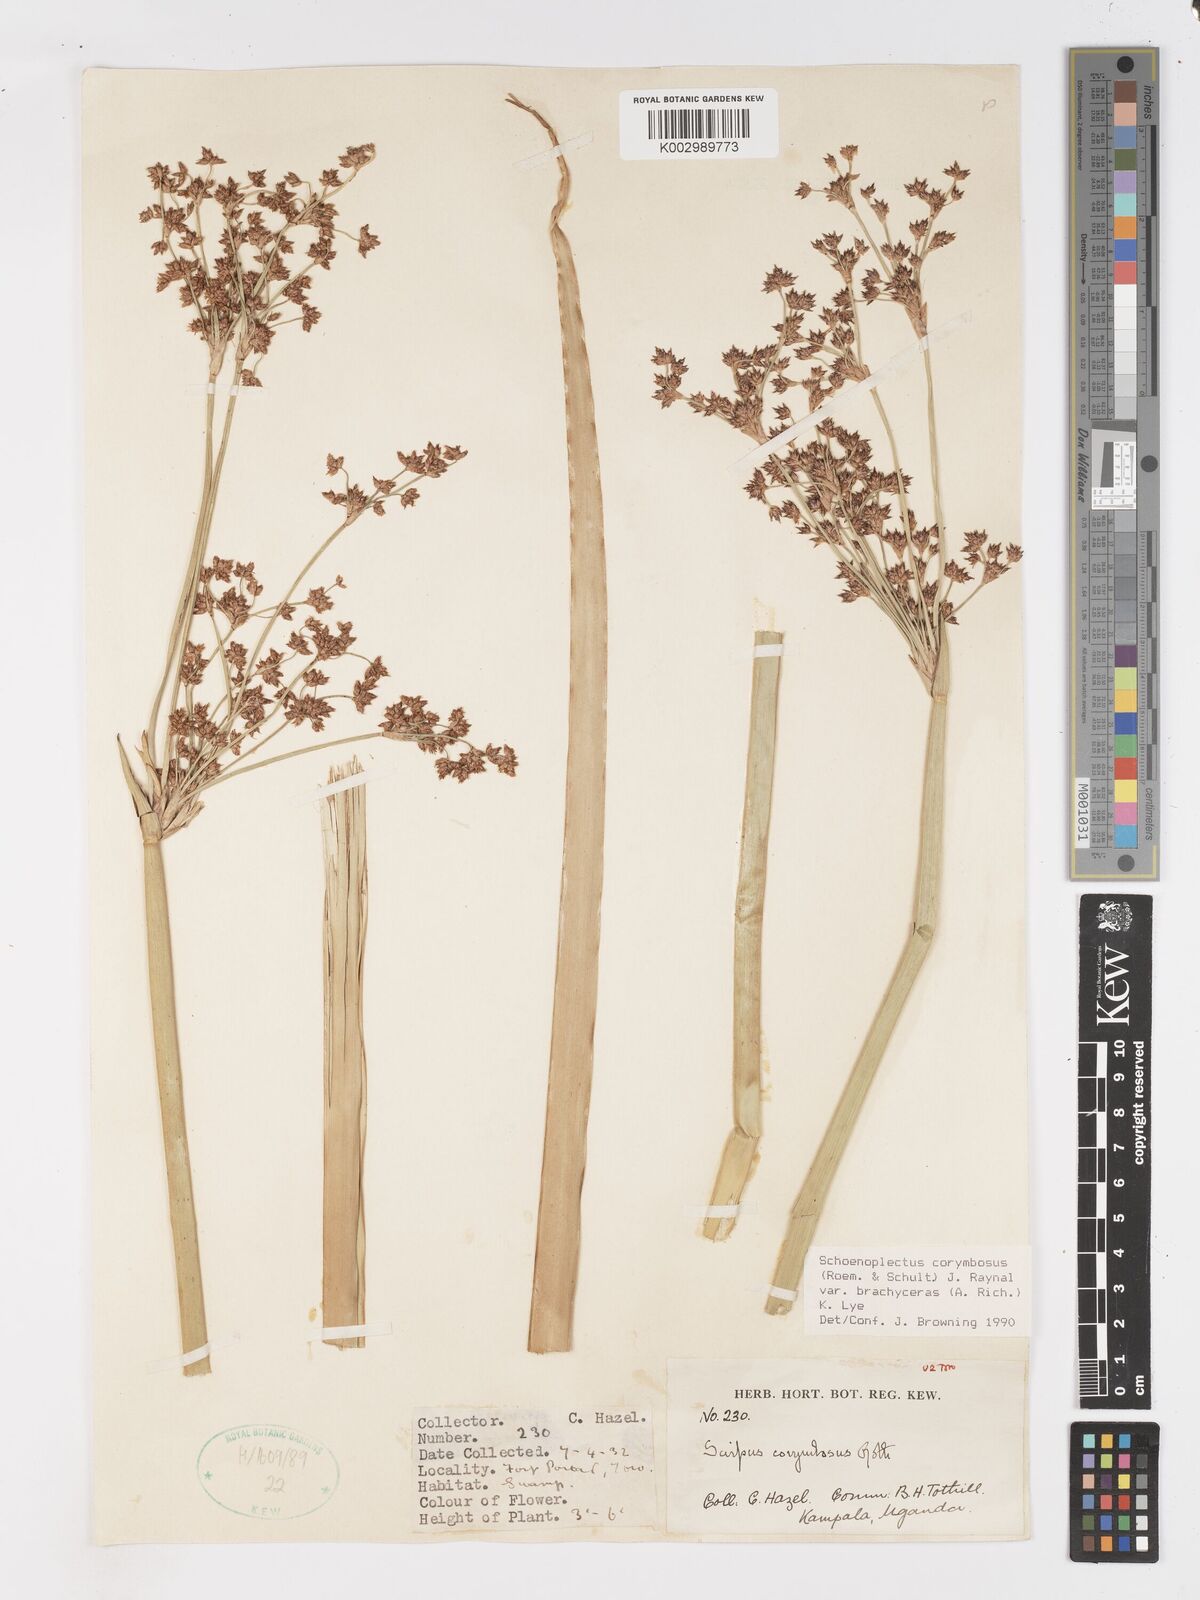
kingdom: Plantae
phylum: Tracheophyta
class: Liliopsida
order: Poales
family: Cyperaceae
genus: Schoenoplectiella
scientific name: Schoenoplectiella brachyceras
